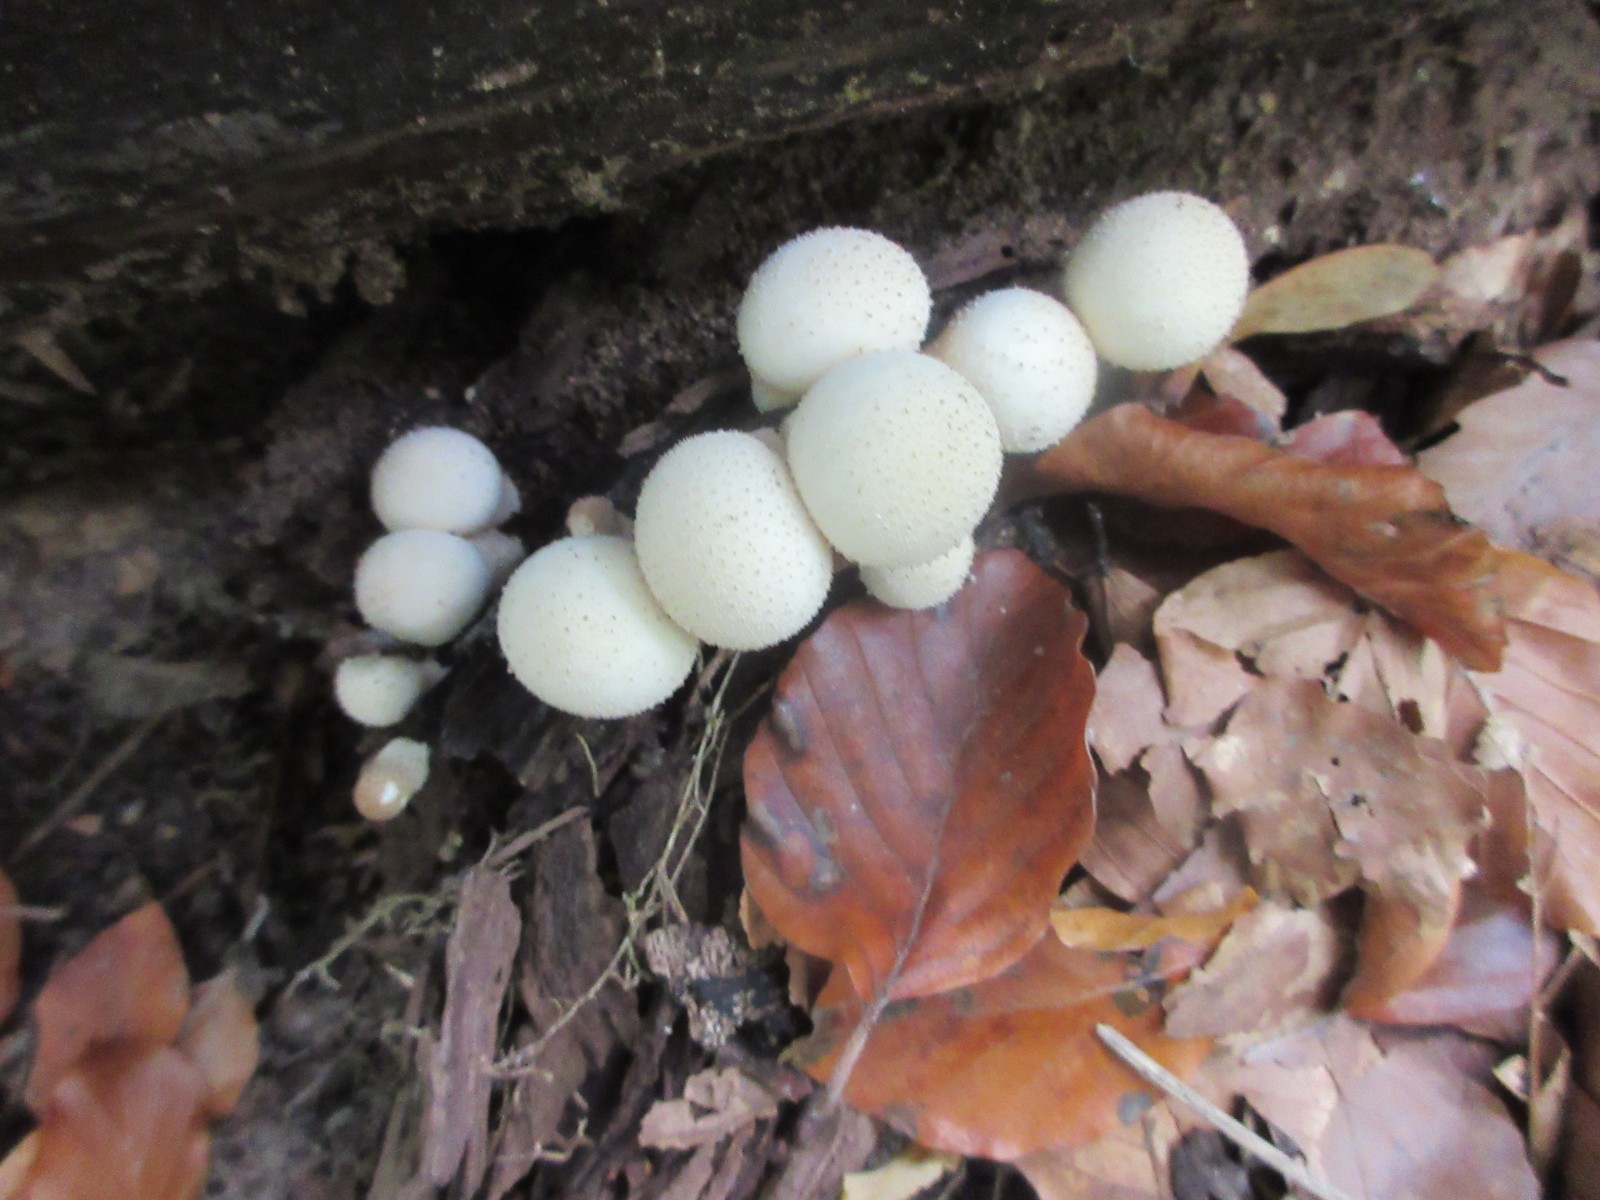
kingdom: Fungi
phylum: Basidiomycota
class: Agaricomycetes
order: Agaricales
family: Lycoperdaceae
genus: Apioperdon
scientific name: Apioperdon pyriforme
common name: pære-støvbold
